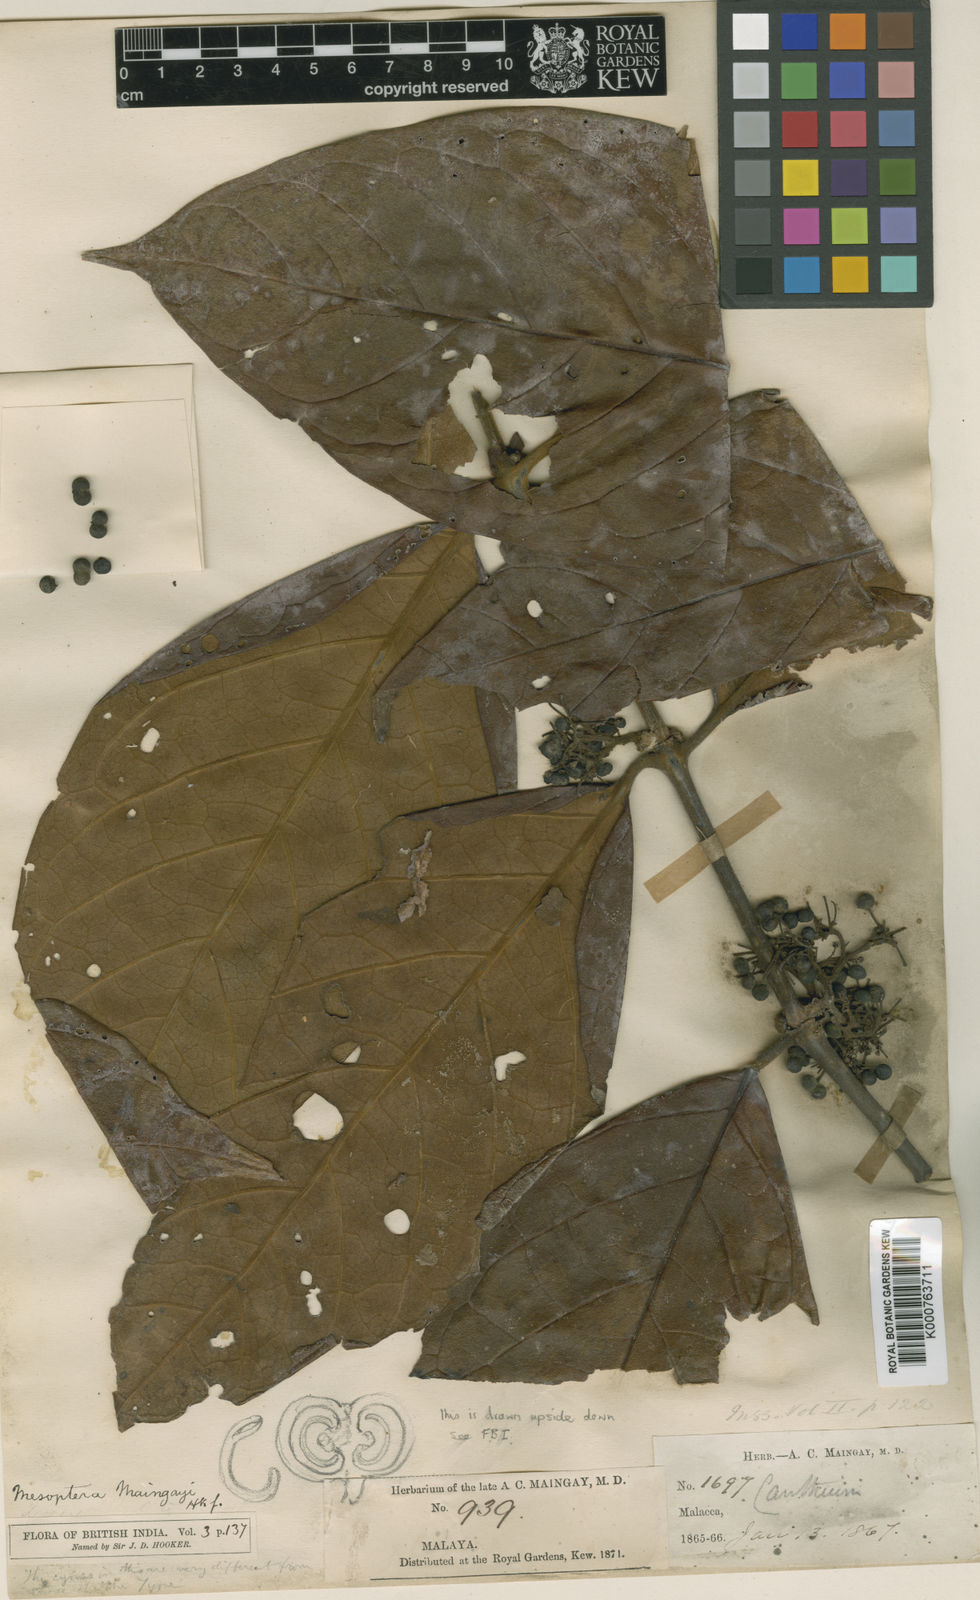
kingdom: Plantae
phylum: Tracheophyta
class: Magnoliopsida
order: Gentianales
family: Rubiaceae
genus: Psydrax
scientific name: Psydrax maingayi
